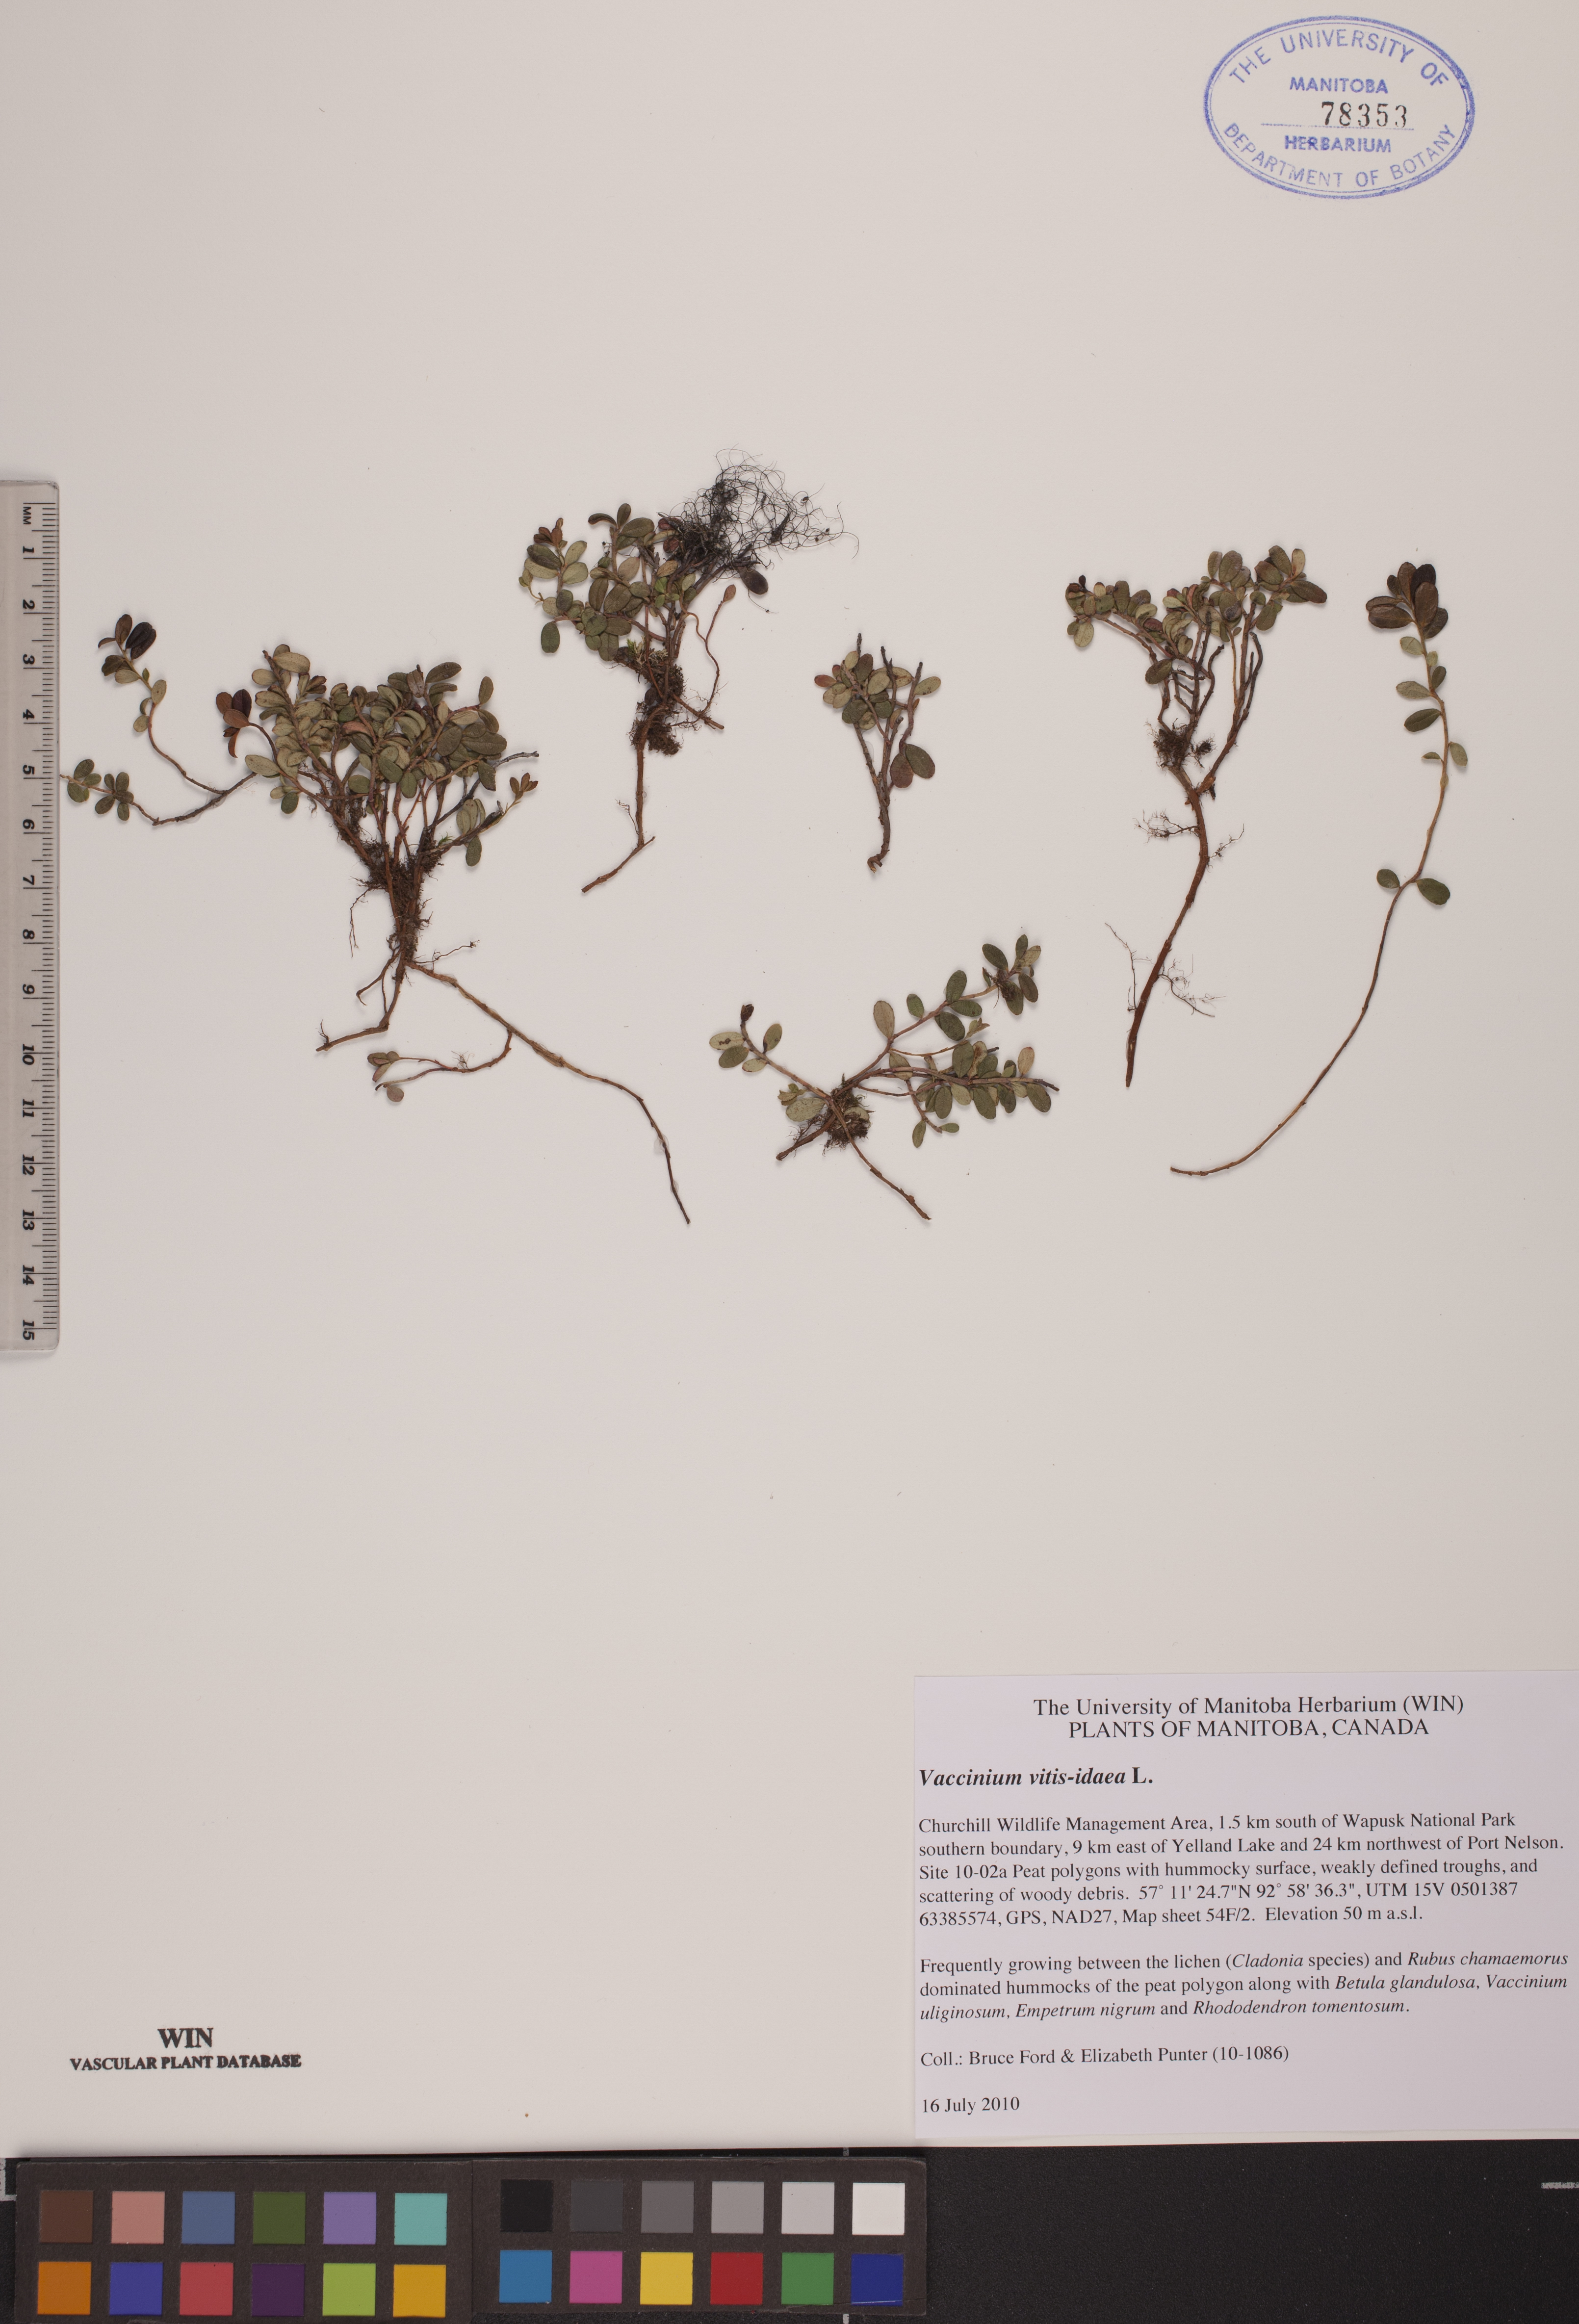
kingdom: Plantae
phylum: Tracheophyta
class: Magnoliopsida
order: Ericales
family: Ericaceae
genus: Vaccinium
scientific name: Vaccinium vitis-idaea
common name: Cowberry
